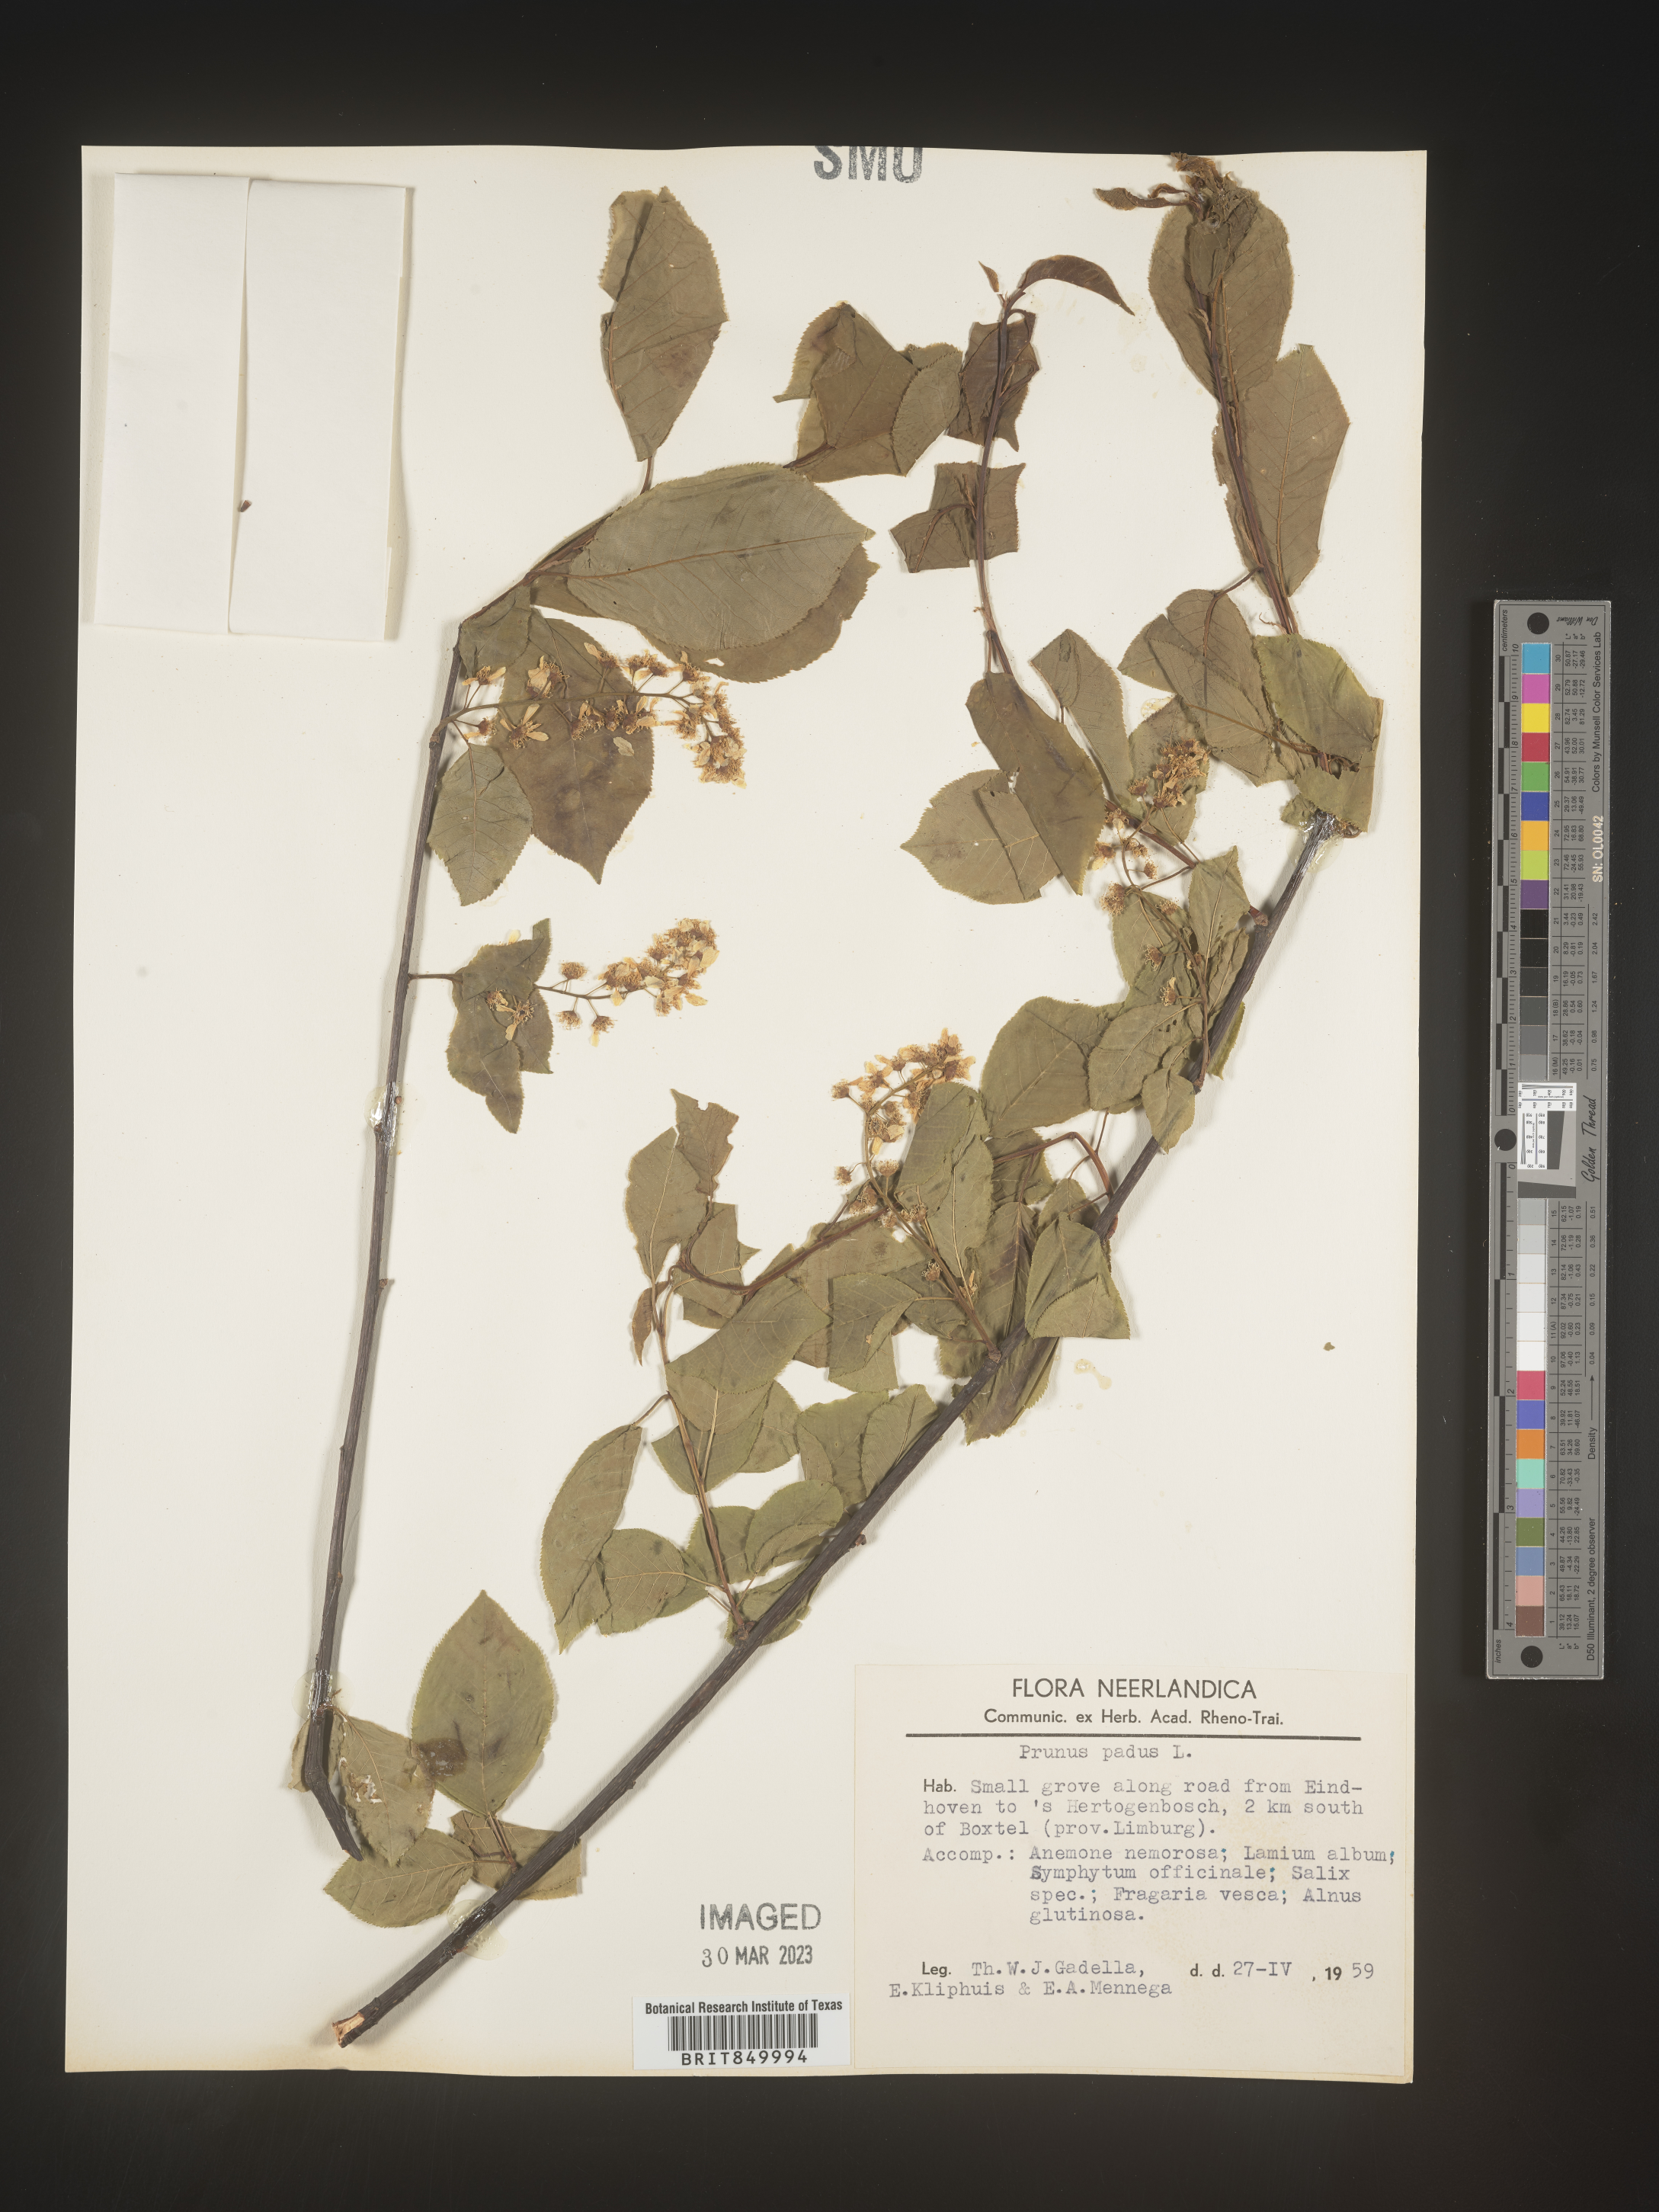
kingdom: Plantae
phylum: Tracheophyta
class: Magnoliopsida
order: Rosales
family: Rosaceae
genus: Prunus
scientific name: Prunus
